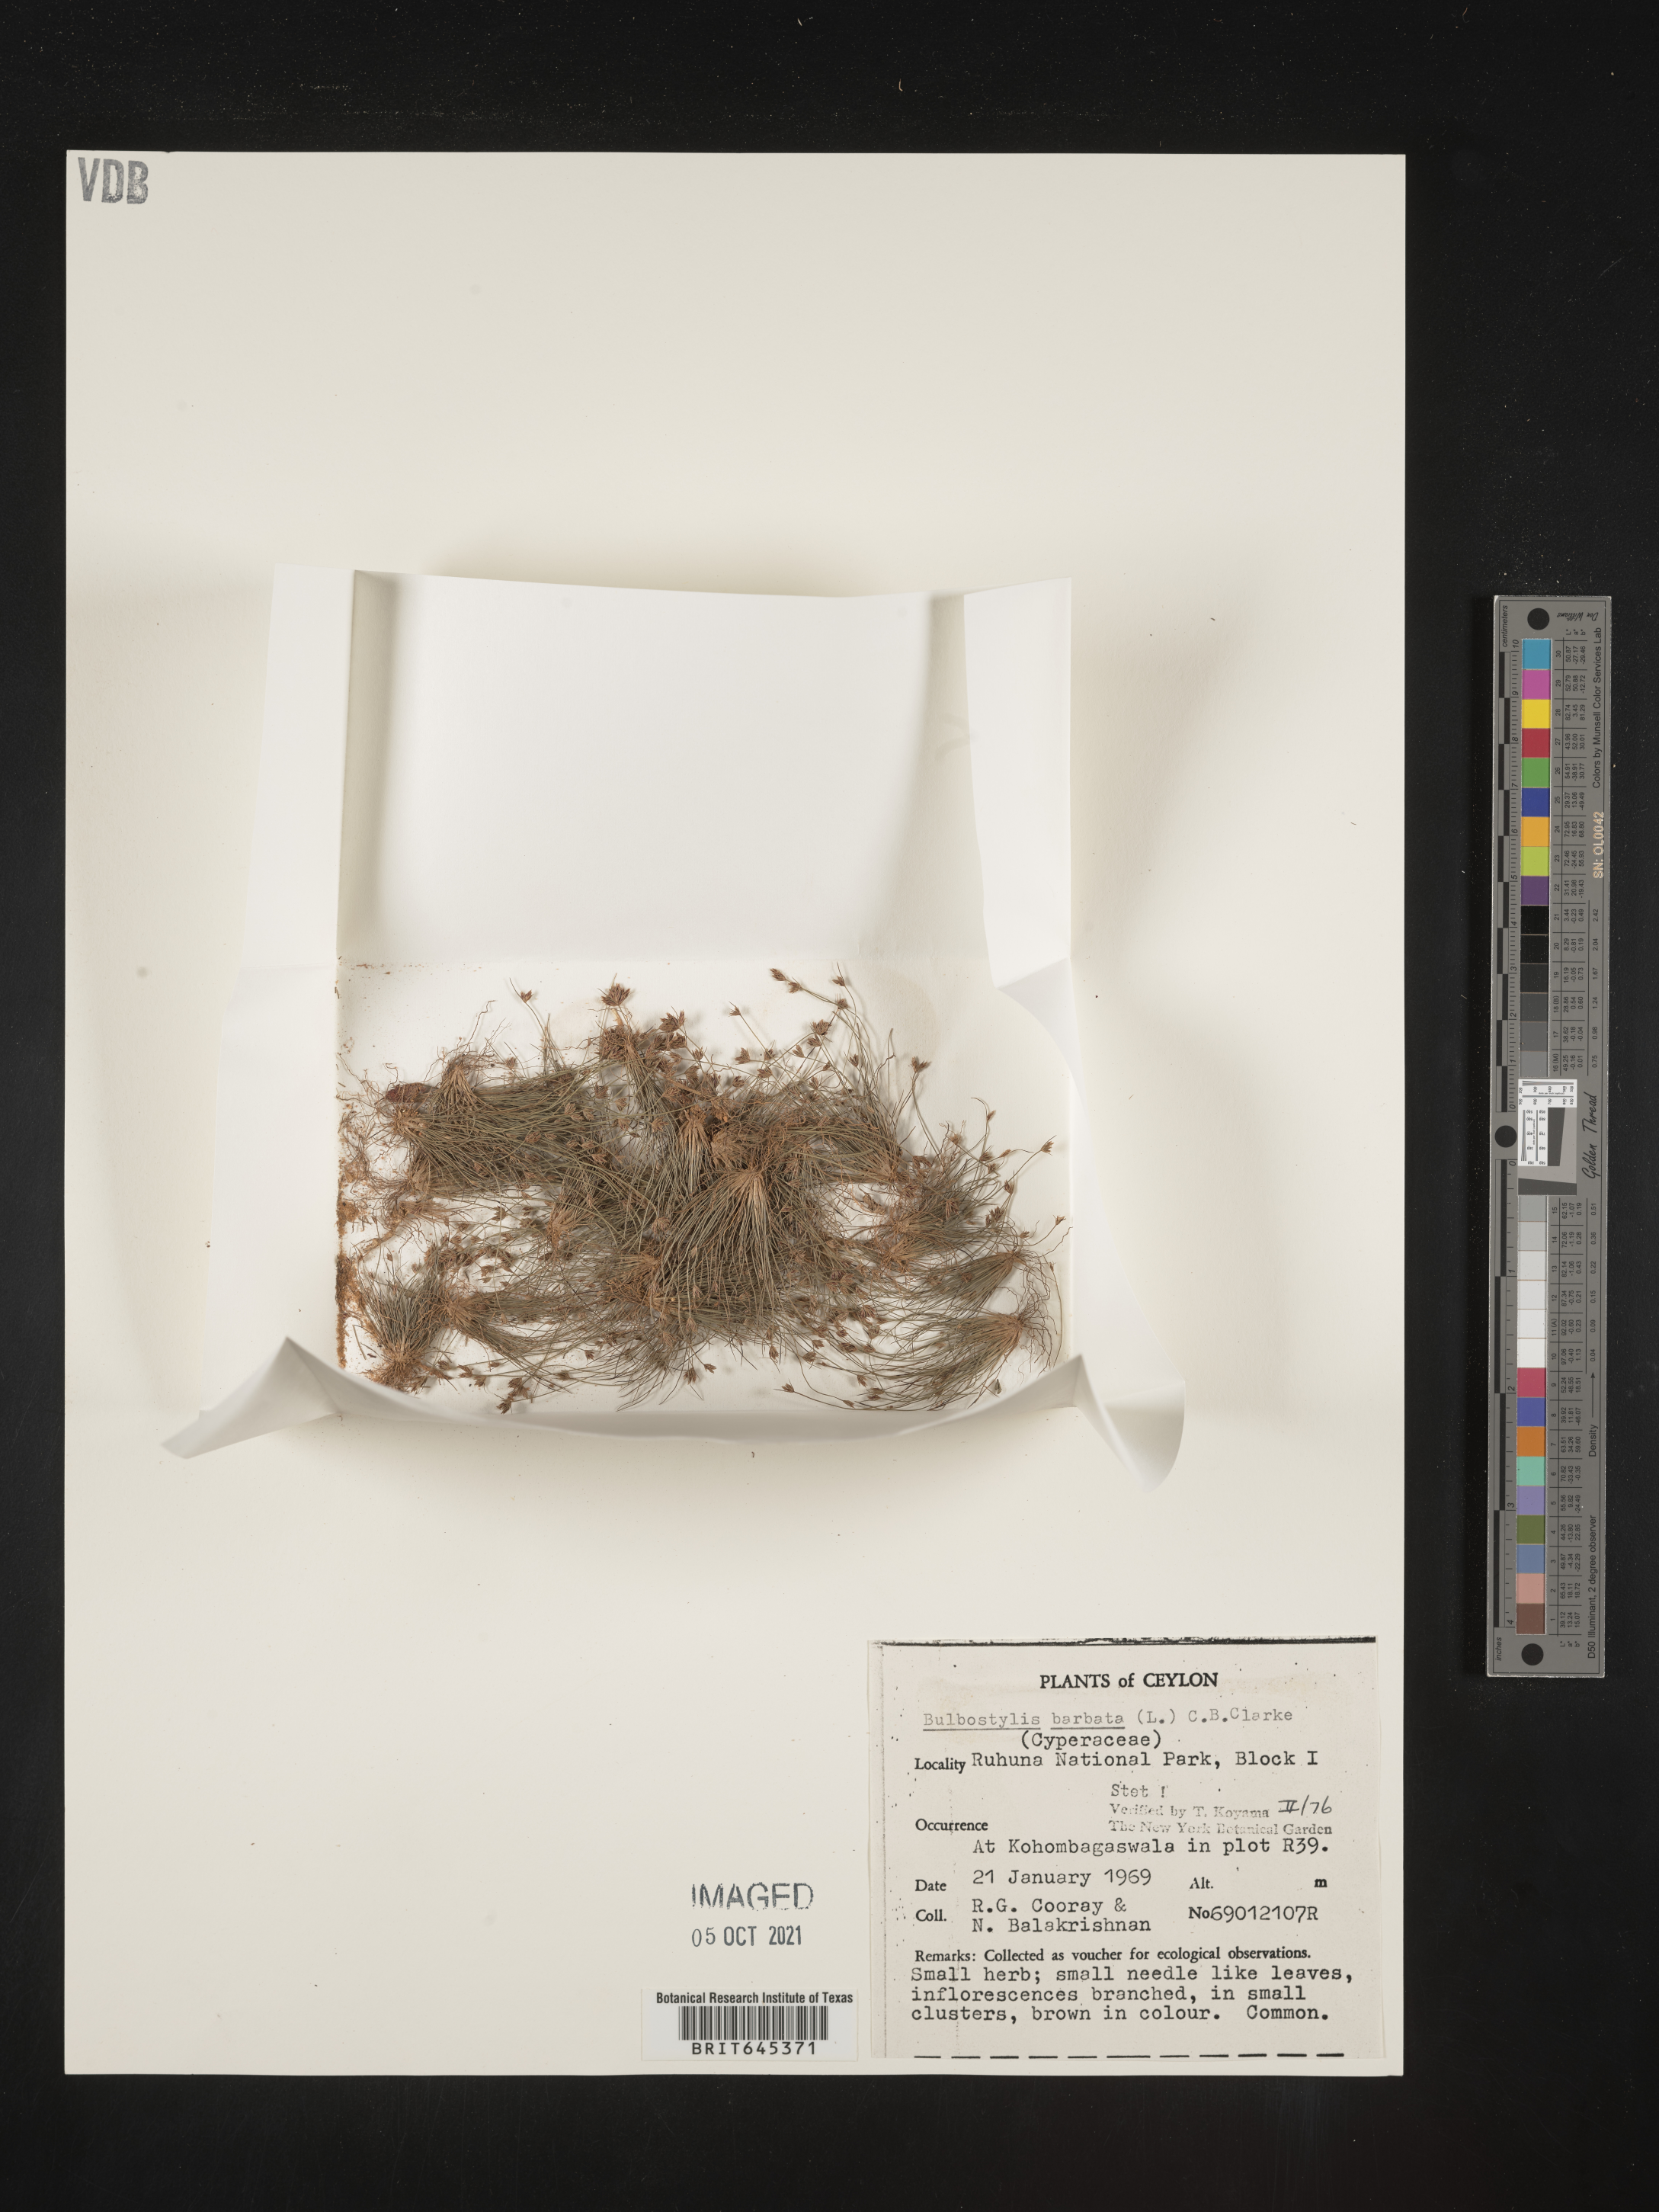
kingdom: Plantae
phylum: Tracheophyta
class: Liliopsida
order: Poales
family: Cyperaceae
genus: Bulbostylis
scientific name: Bulbostylis barbata
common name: Watergrass
